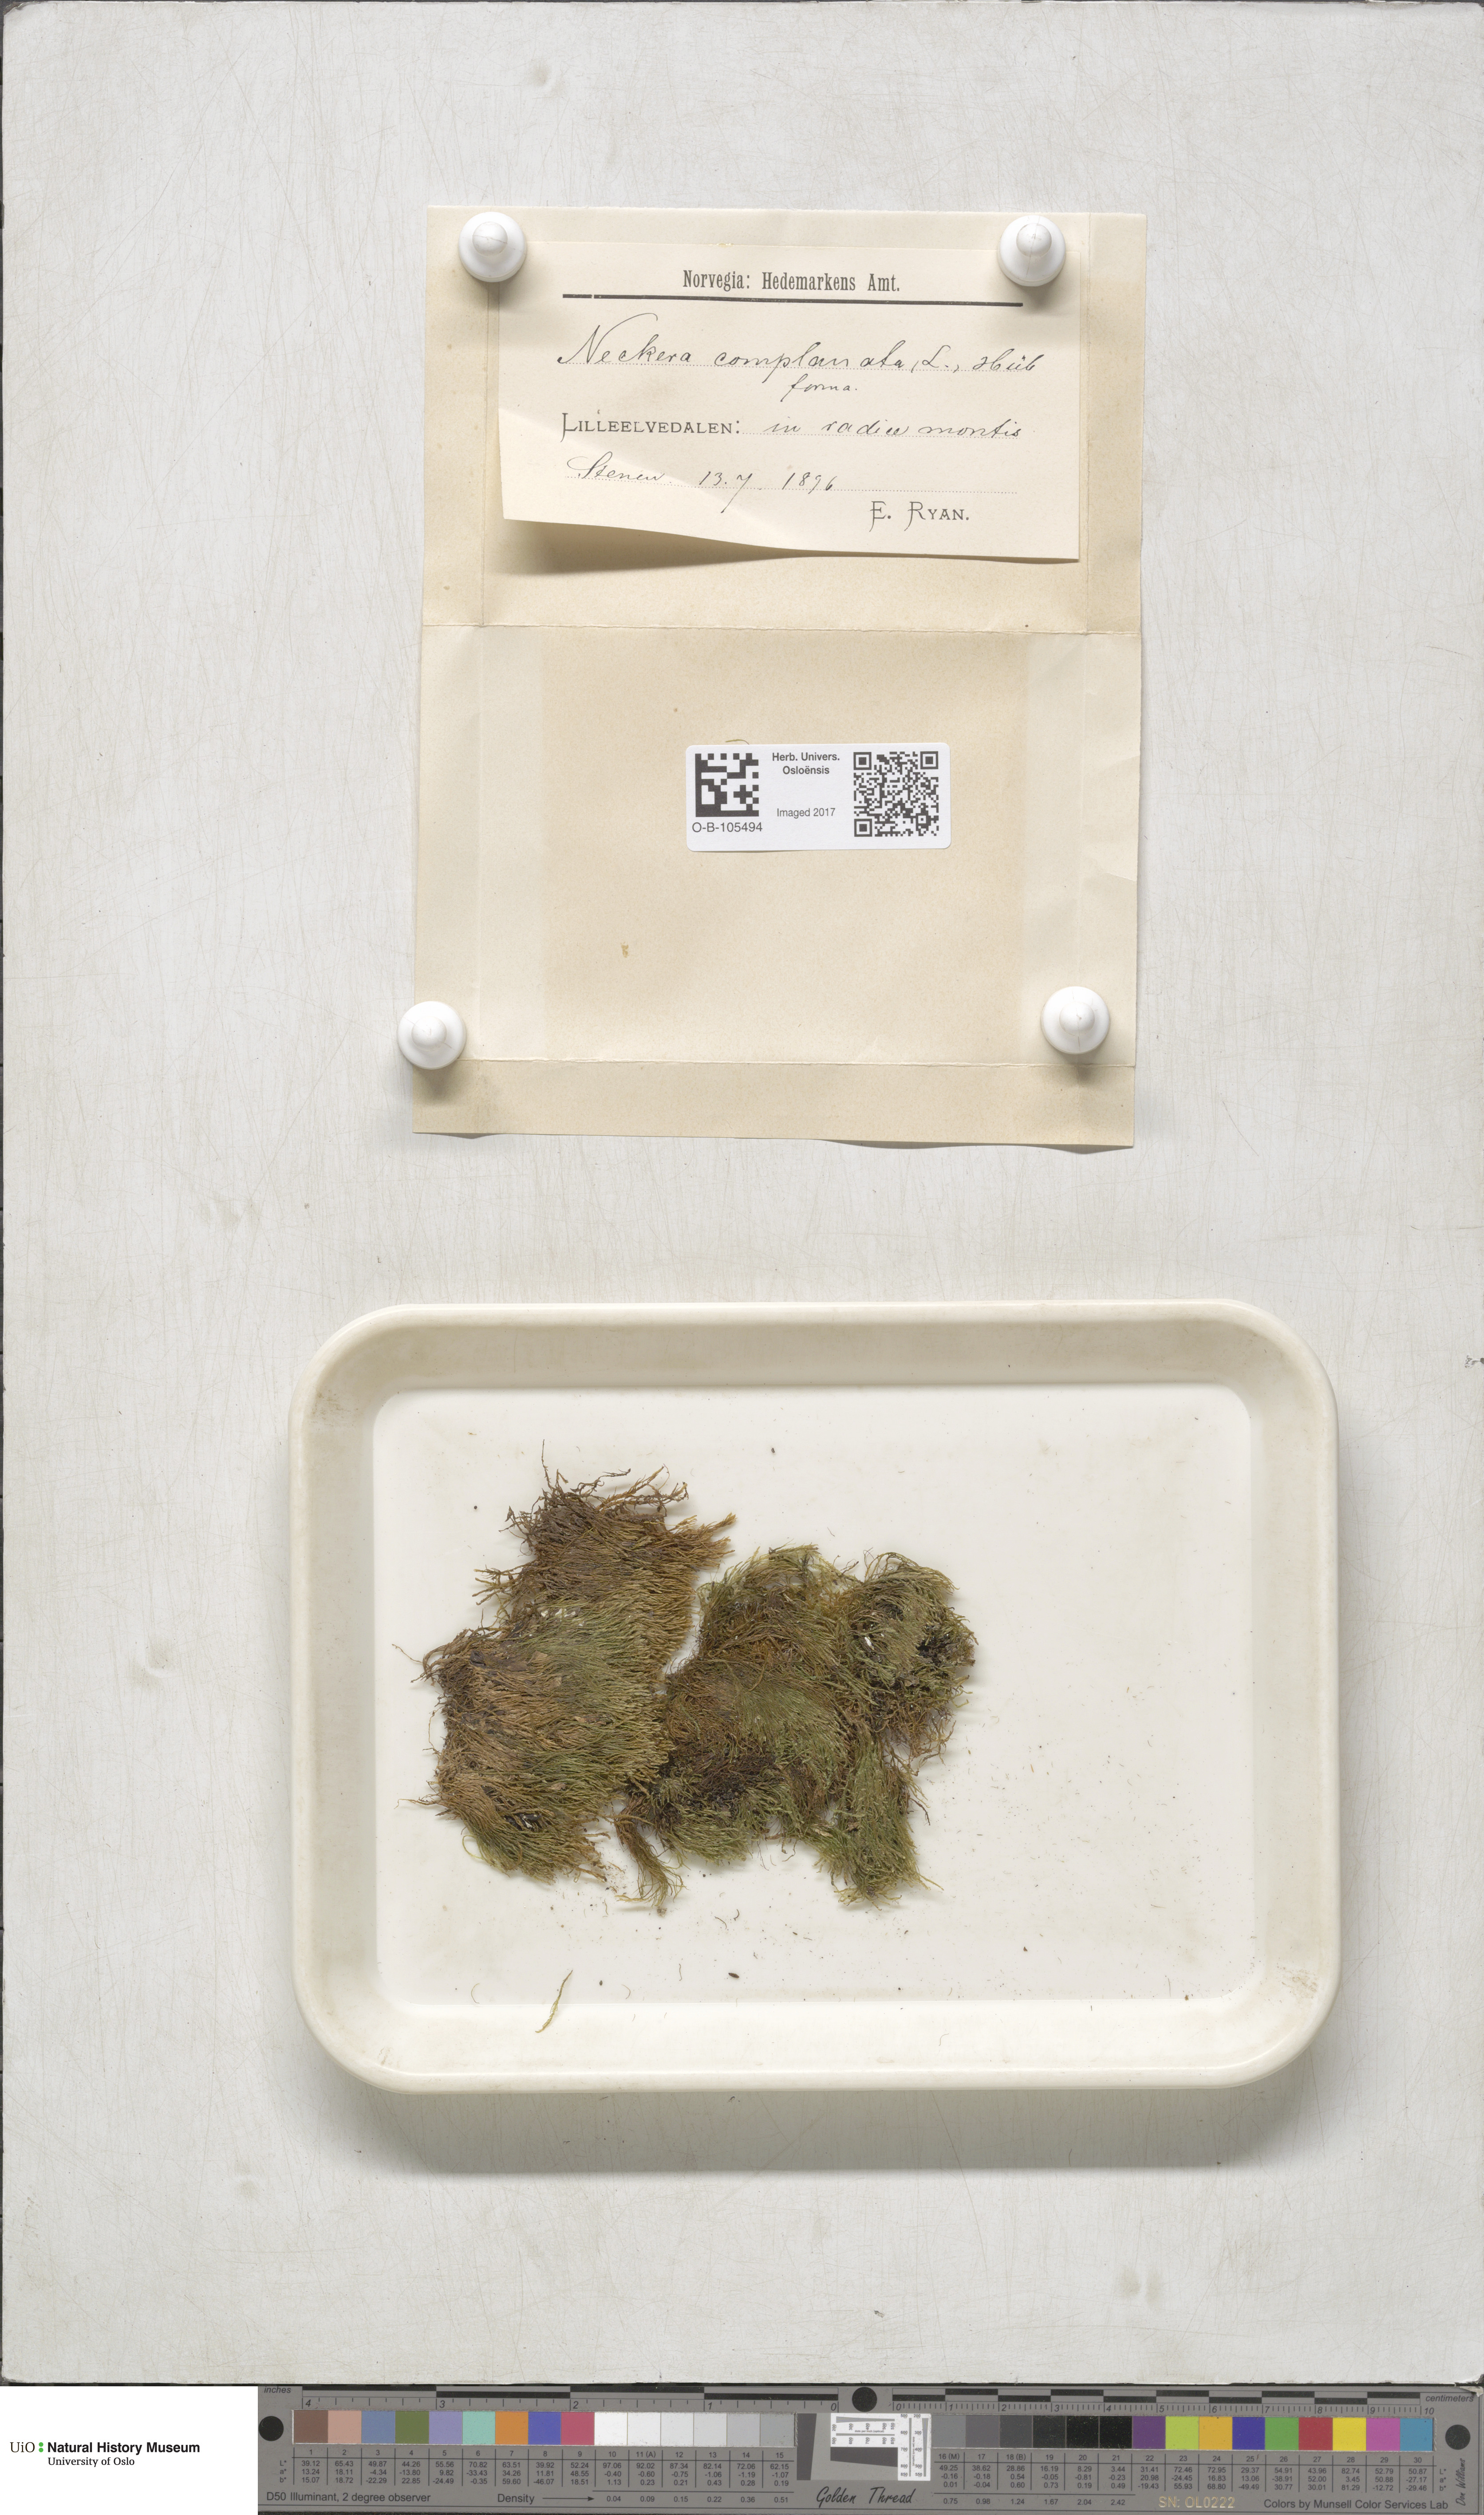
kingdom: Plantae
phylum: Bryophyta
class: Bryopsida
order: Hypnales
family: Neckeraceae
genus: Alleniella
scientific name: Alleniella complanata
